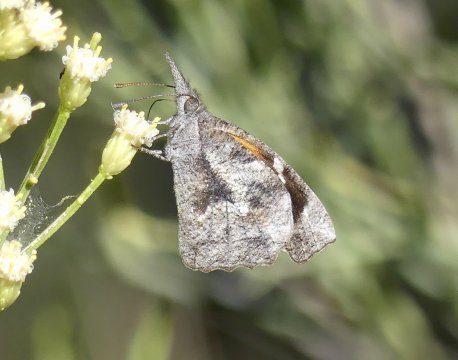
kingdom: Animalia
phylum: Arthropoda
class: Insecta
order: Lepidoptera
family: Nymphalidae
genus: Libytheana
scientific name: Libytheana carinenta
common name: American Snout
